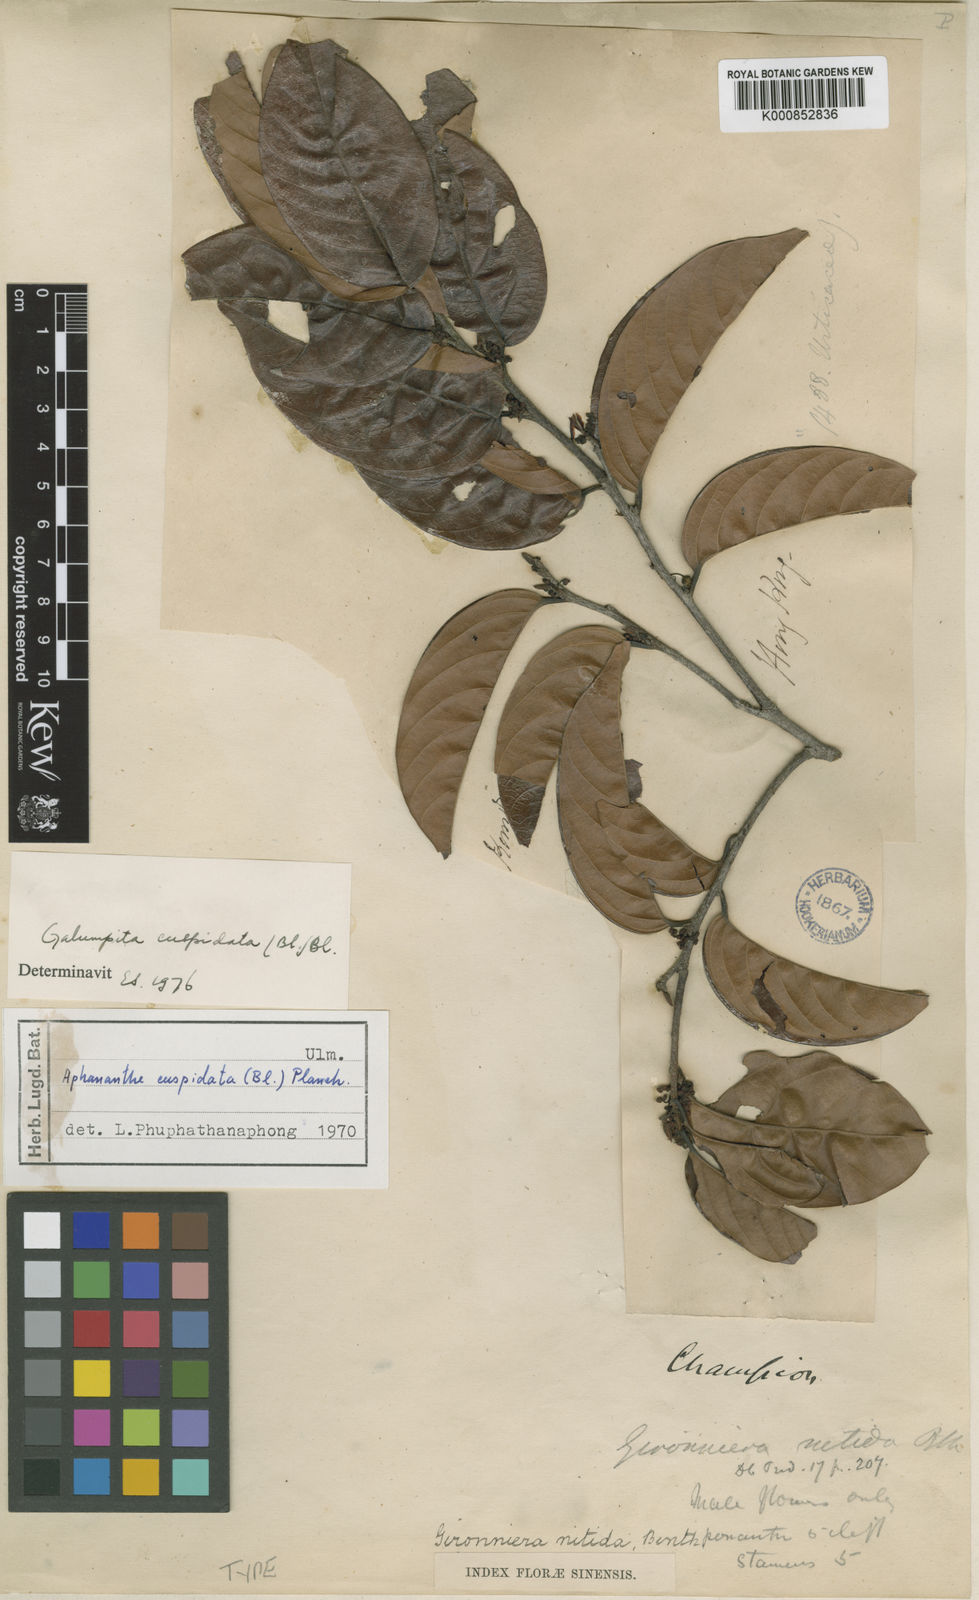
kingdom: Plantae
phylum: Tracheophyta
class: Magnoliopsida
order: Rosales
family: Cannabaceae
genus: Aphananthe
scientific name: Aphananthe cuspidata
